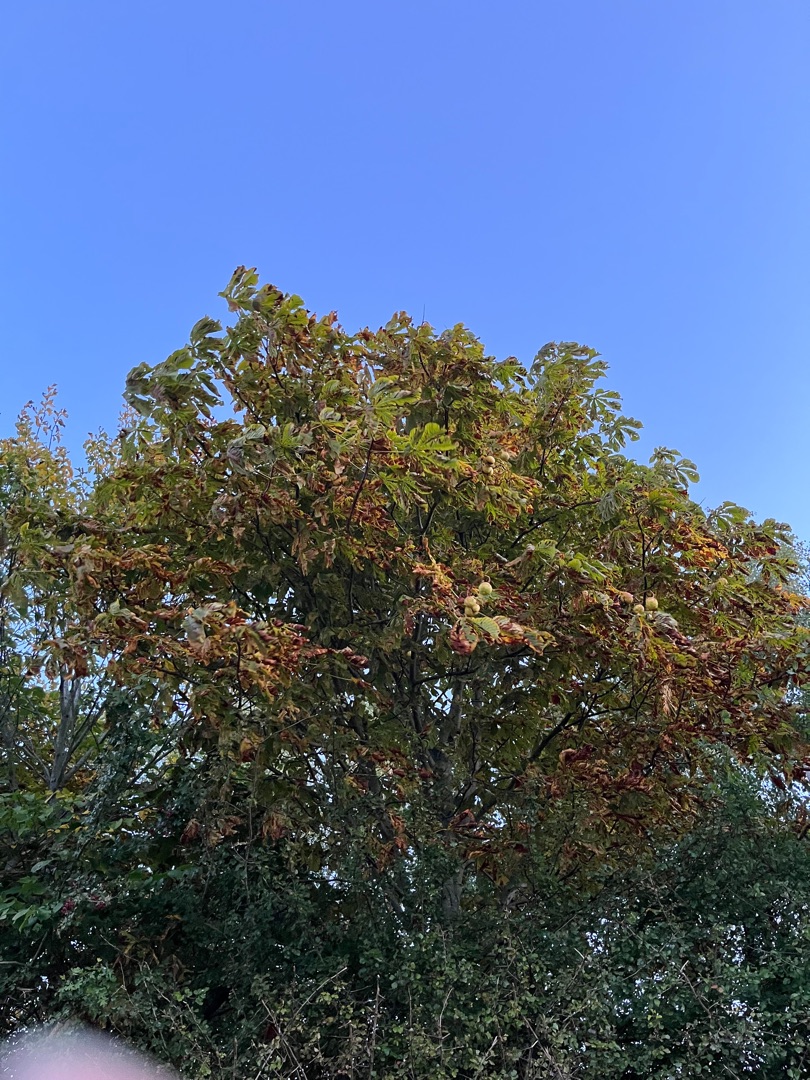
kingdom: Plantae
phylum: Tracheophyta
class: Magnoliopsida
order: Sapindales
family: Sapindaceae
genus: Aesculus
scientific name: Aesculus hippocastanum
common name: Hestekastanie
